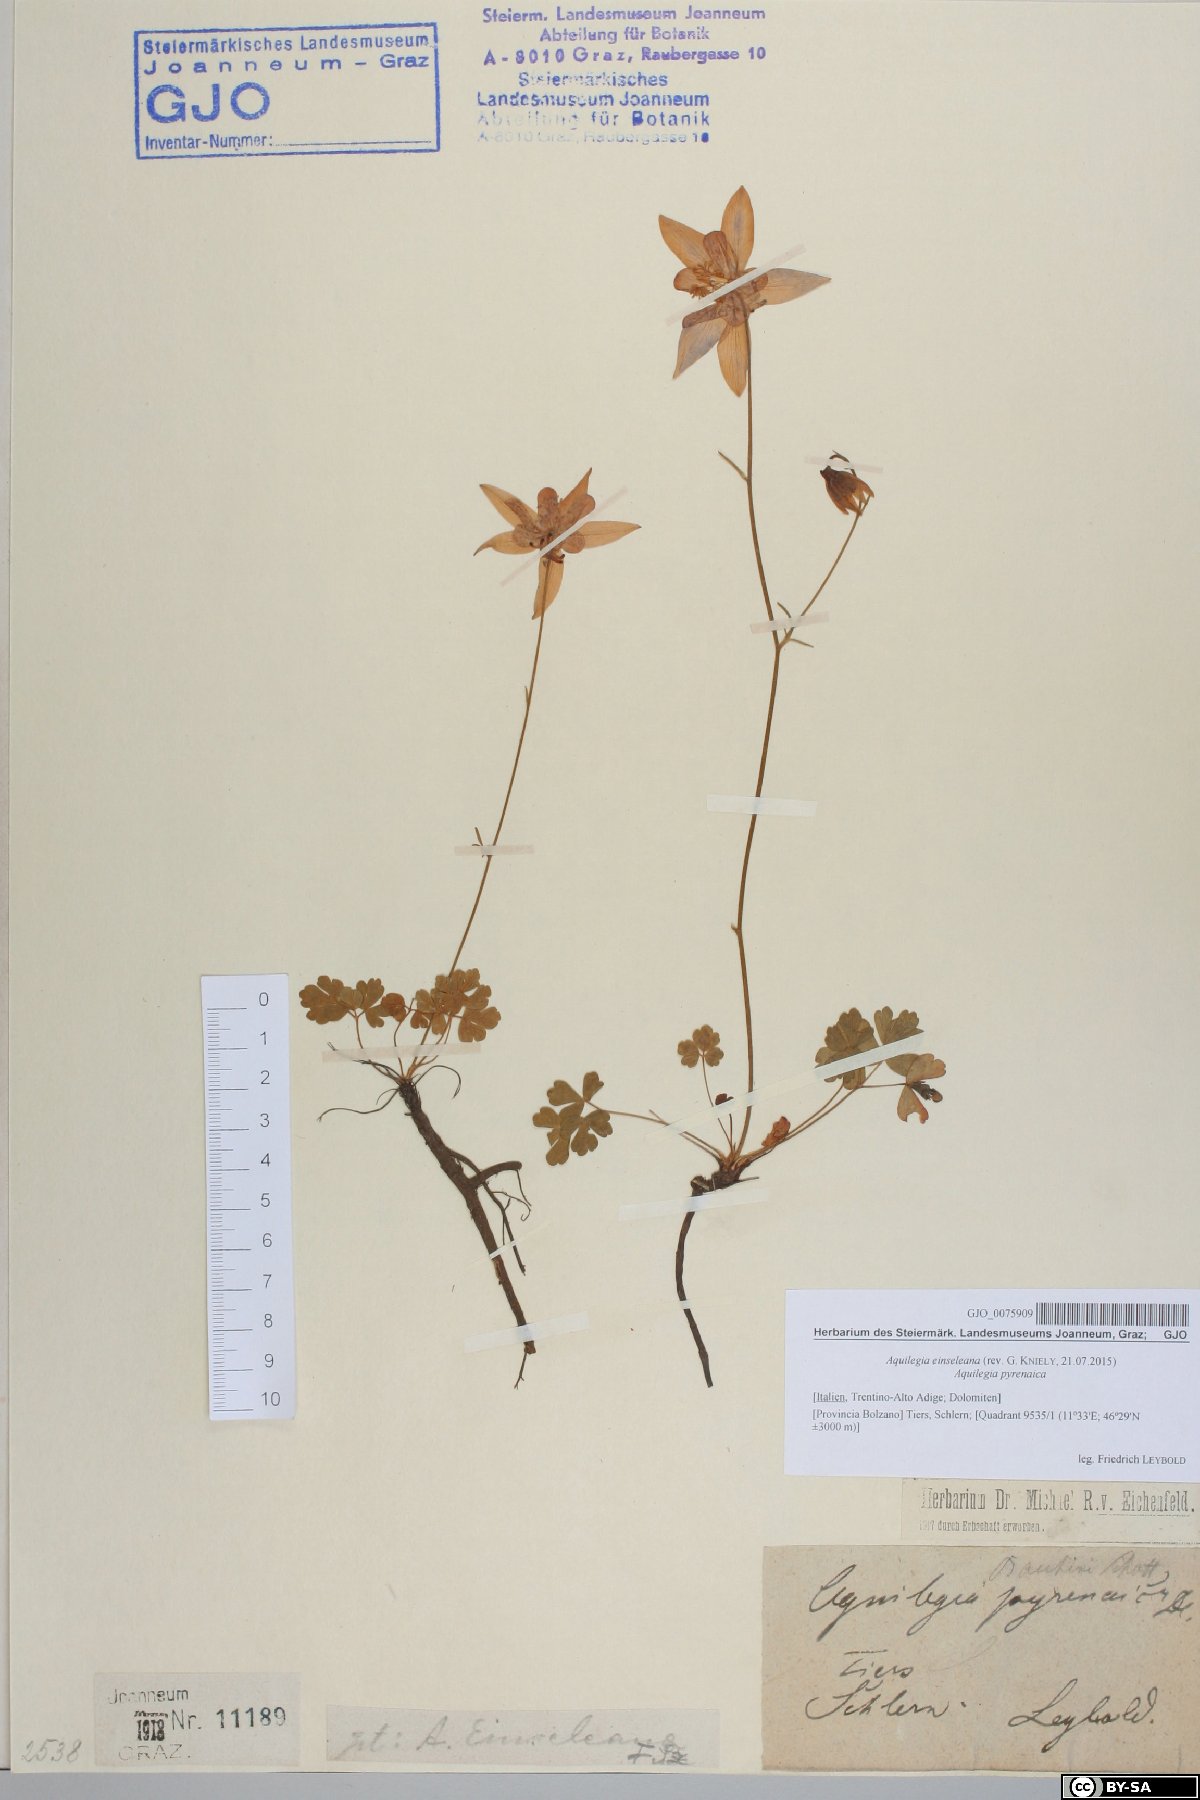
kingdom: Plantae
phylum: Tracheophyta
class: Magnoliopsida
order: Ranunculales
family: Ranunculaceae
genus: Aquilegia
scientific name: Aquilegia einseleana
